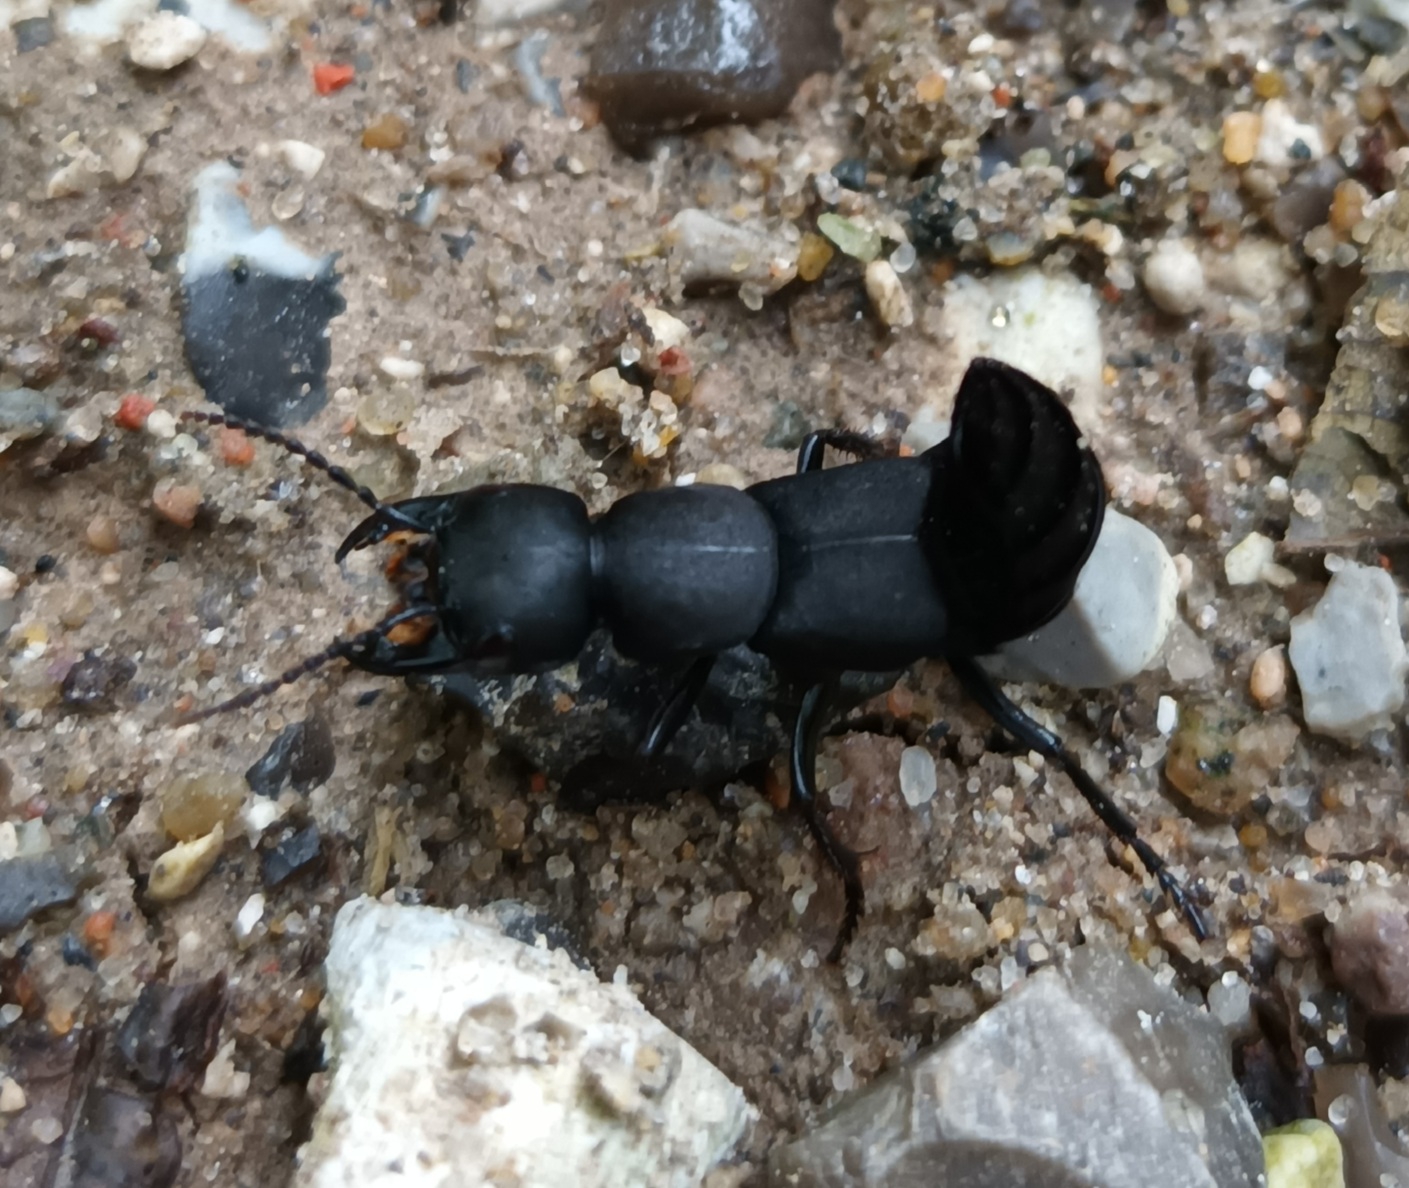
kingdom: Animalia
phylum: Arthropoda
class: Insecta
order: Coleoptera
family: Staphylinidae
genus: Ocypus
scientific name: Ocypus olens
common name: Stor rovbille
